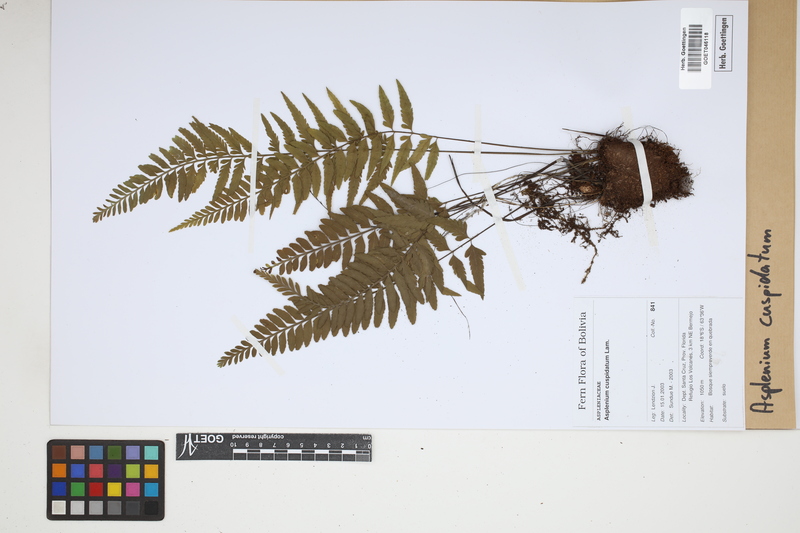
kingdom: Plantae
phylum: Tracheophyta
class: Polypodiopsida
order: Polypodiales
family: Aspleniaceae
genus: Asplenium
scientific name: Asplenium cuspidatum
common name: Eared spleenwort
